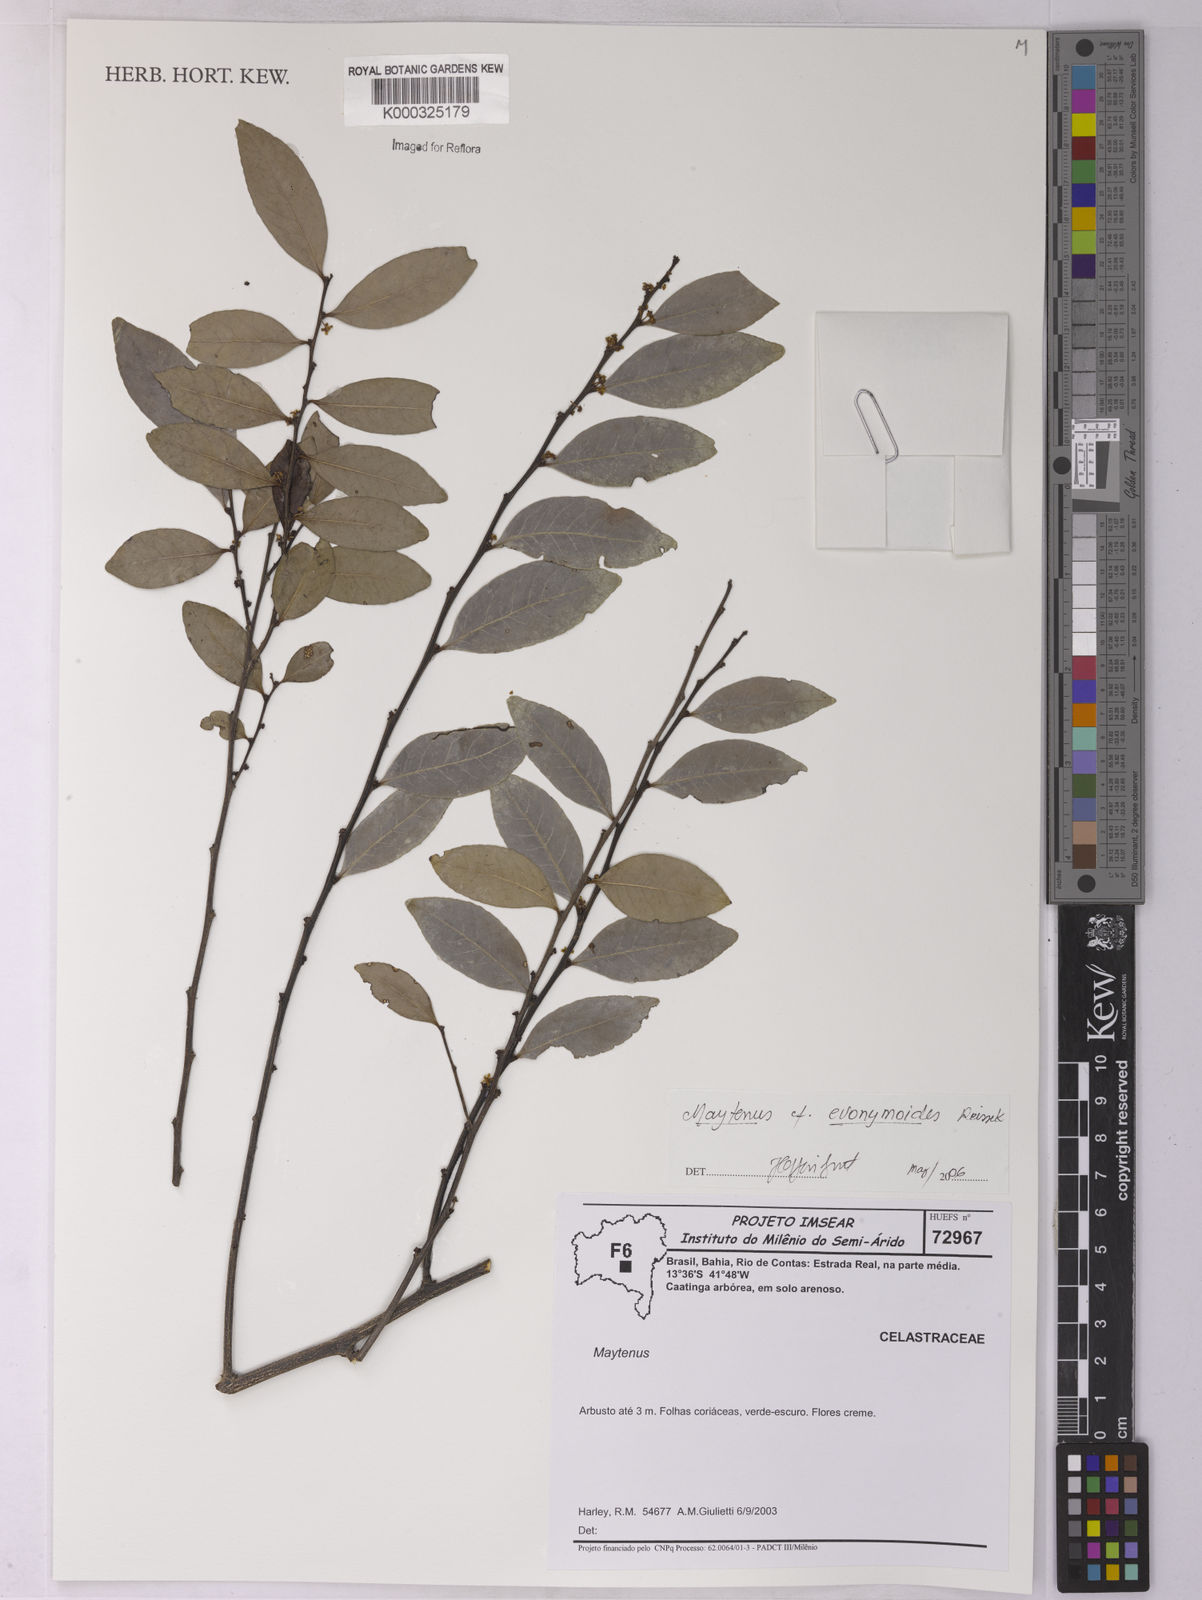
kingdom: Plantae
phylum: Tracheophyta
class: Magnoliopsida
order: Celastrales
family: Celastraceae
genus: Monteverdia
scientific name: Monteverdia evonymoides
